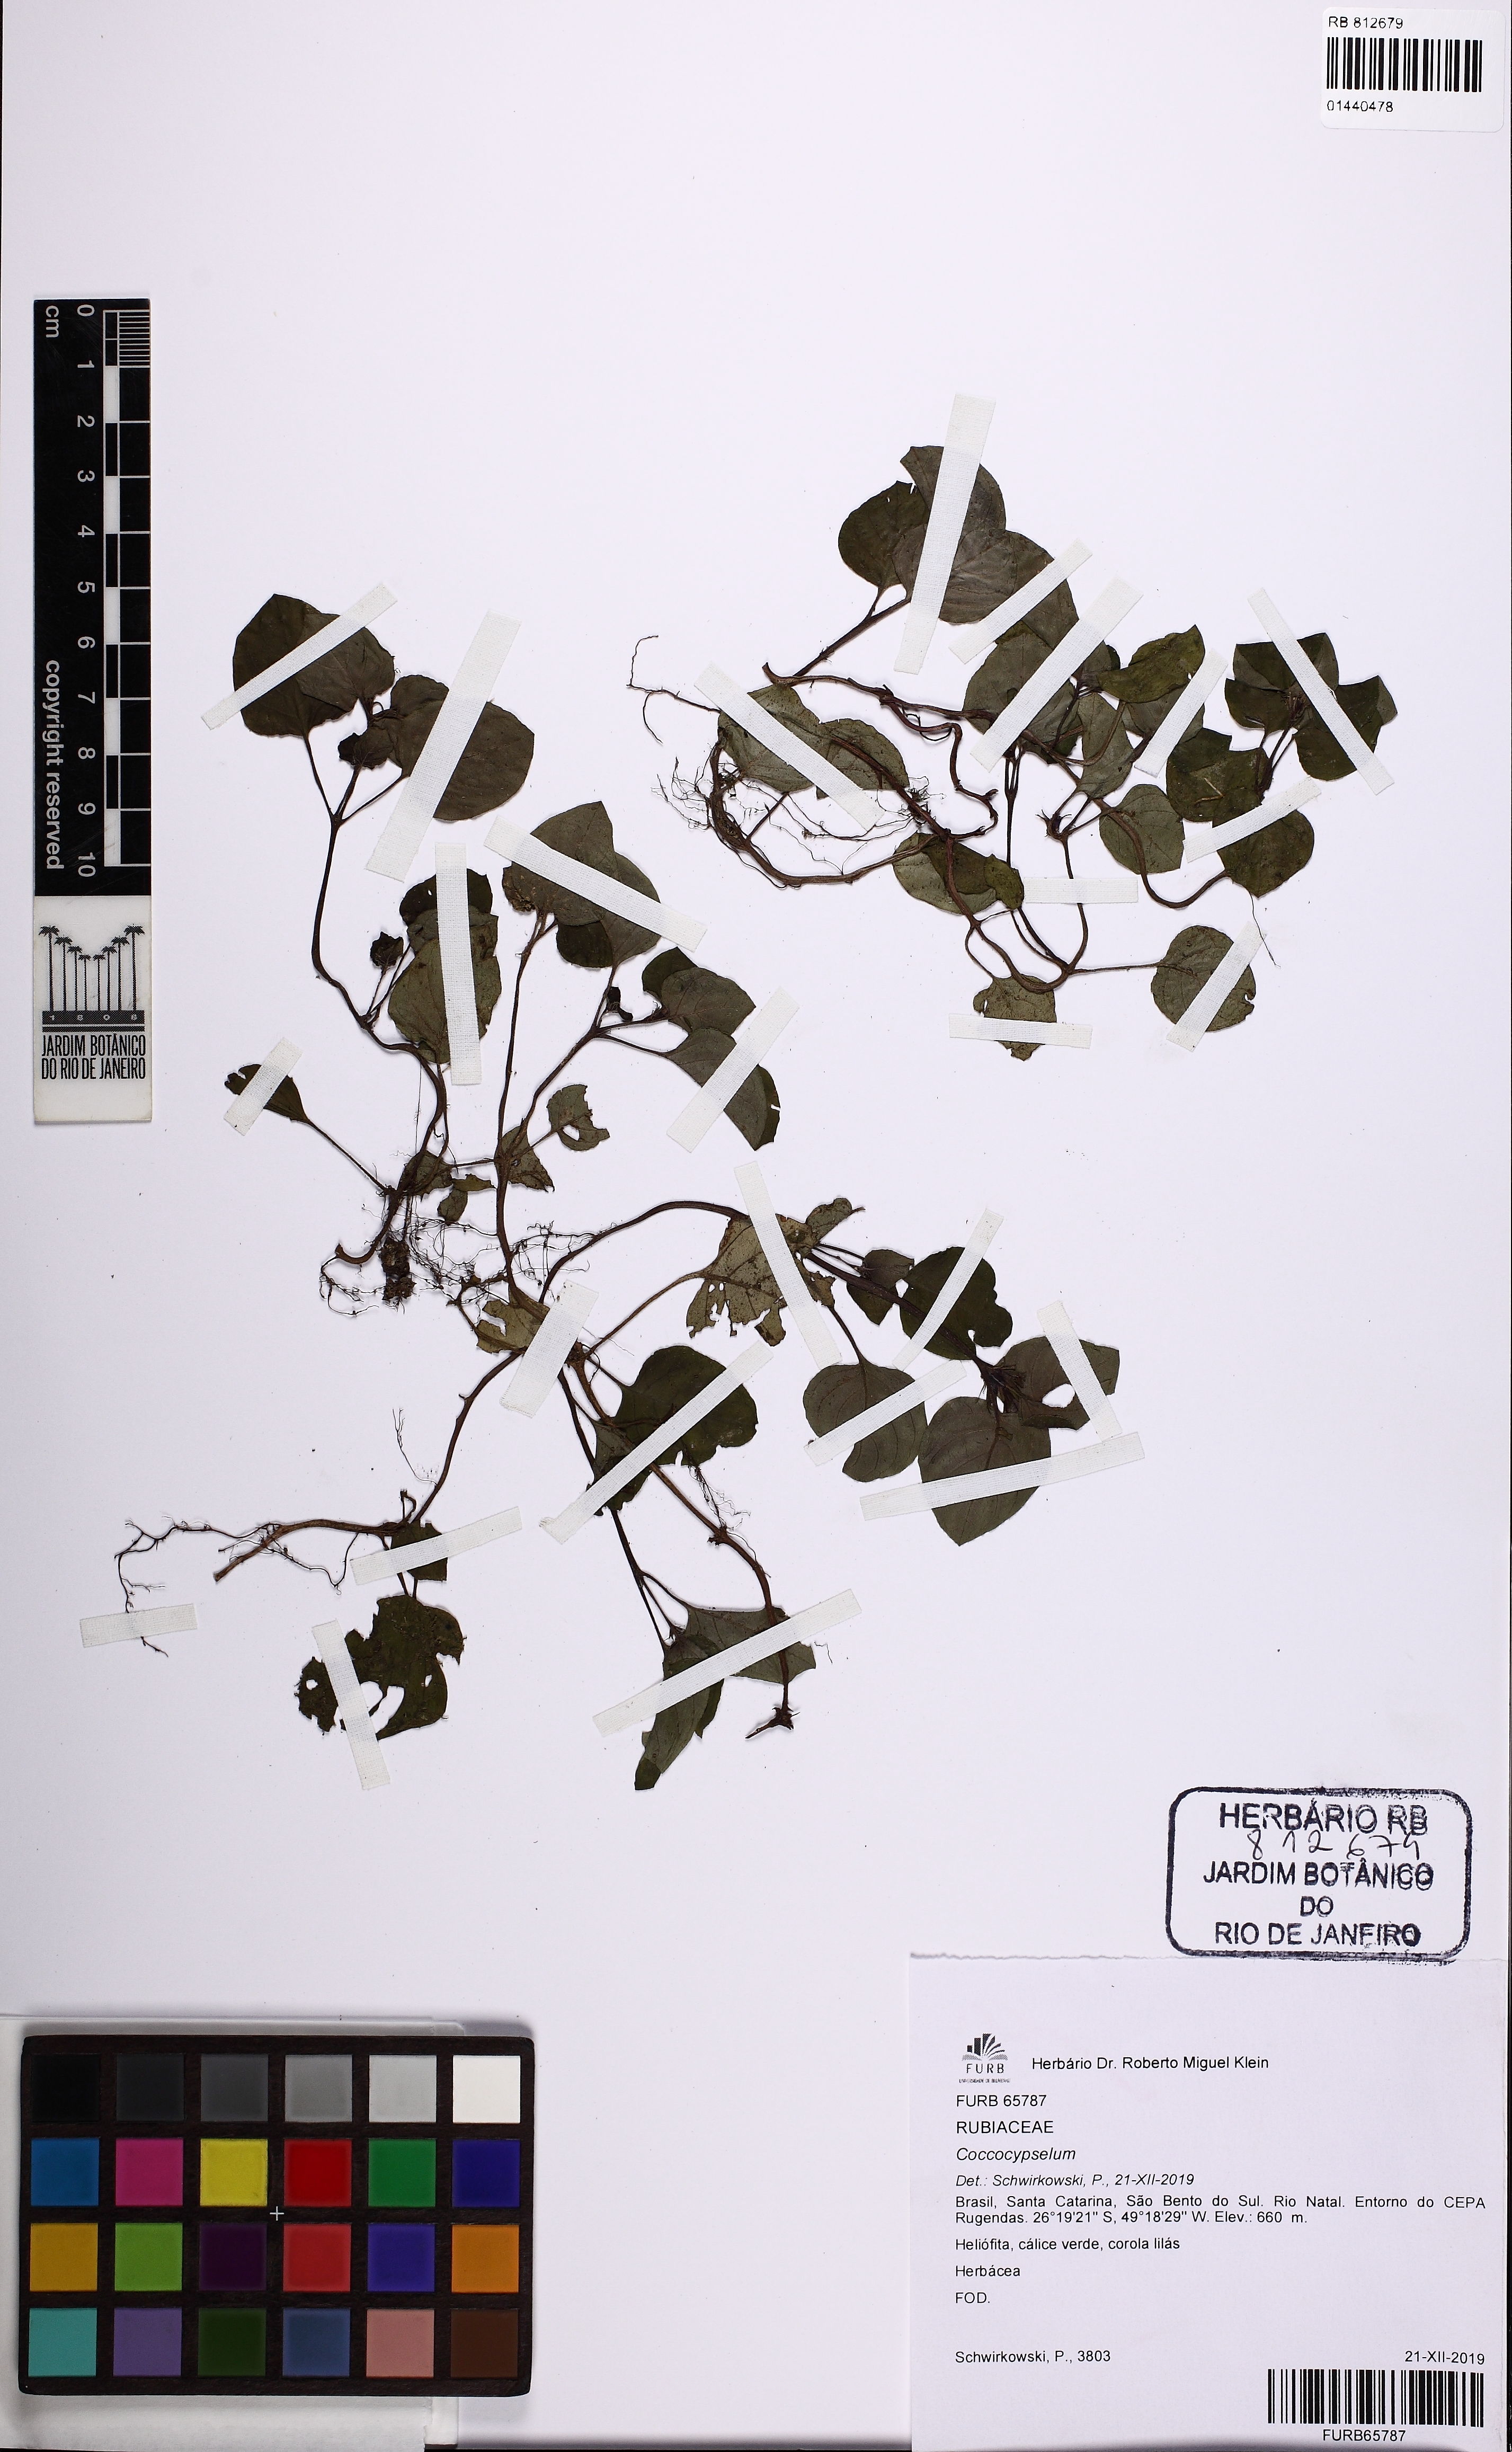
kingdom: Plantae
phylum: Tracheophyta
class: Magnoliopsida
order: Gentianales
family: Rubiaceae
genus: Coccocypselum
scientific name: Coccocypselum
